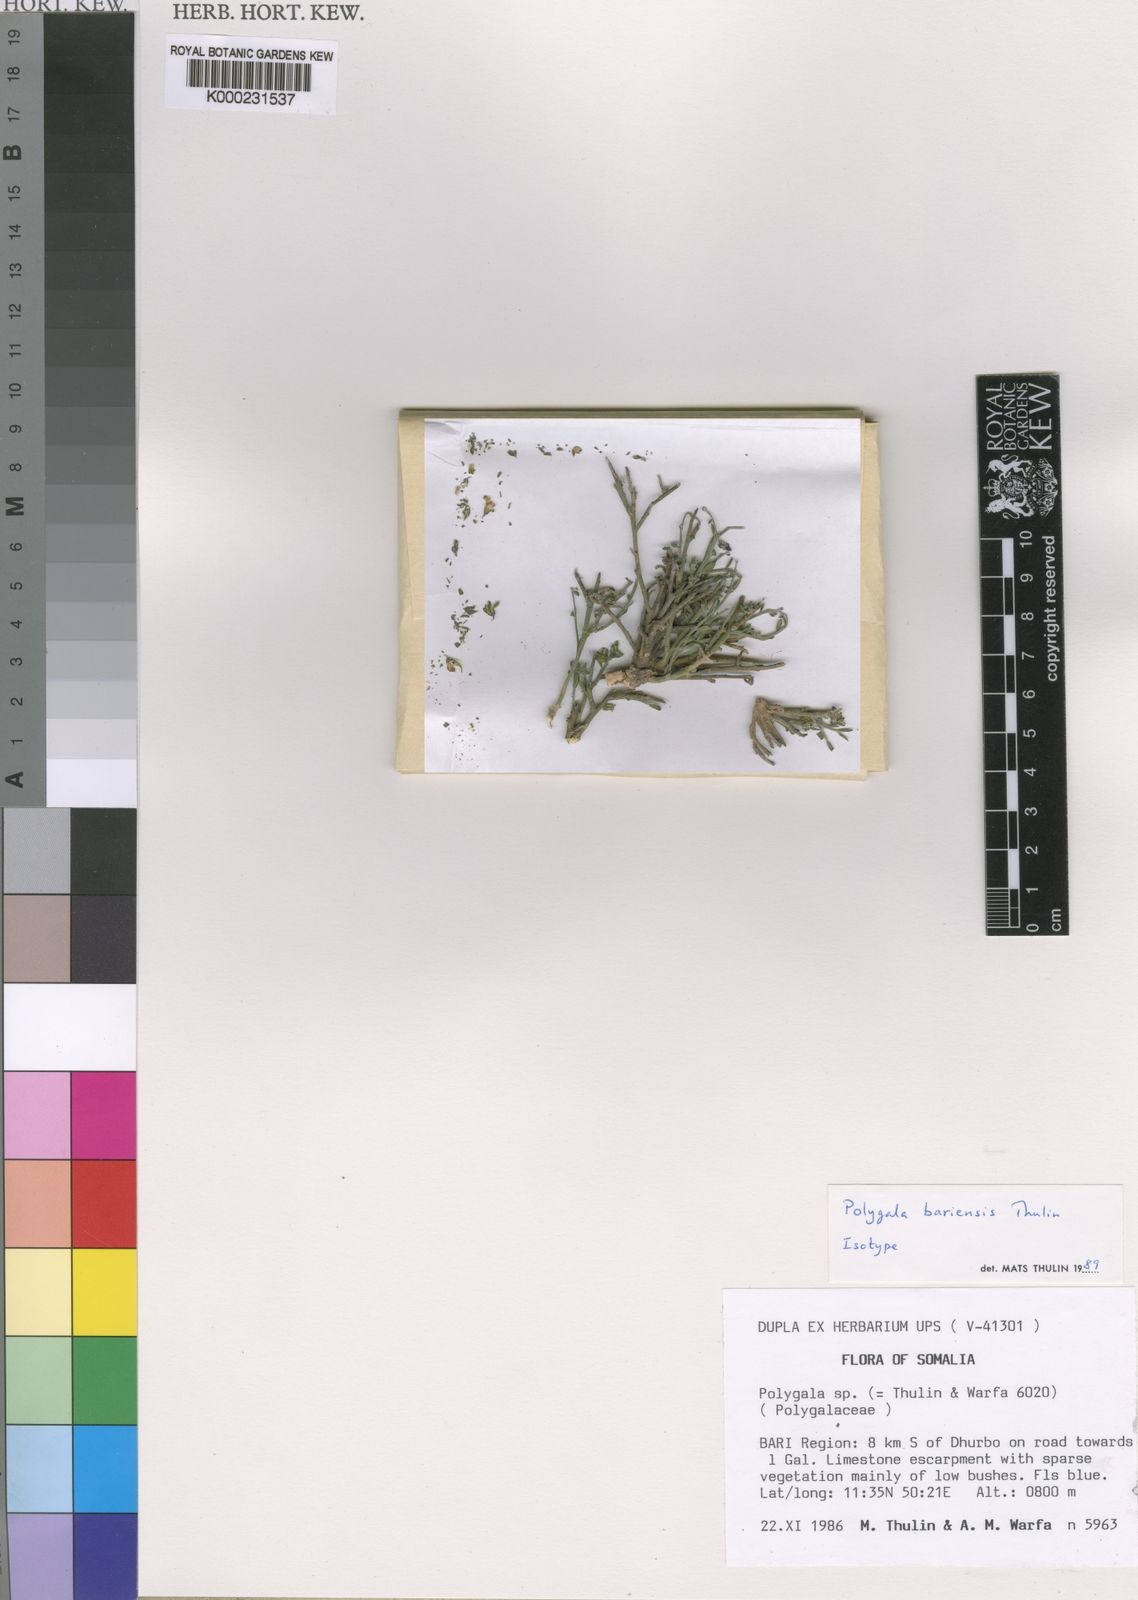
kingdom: Plantae
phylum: Tracheophyta
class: Magnoliopsida
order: Fabales
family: Polygalaceae
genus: Polygala
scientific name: Polygala bariensis
